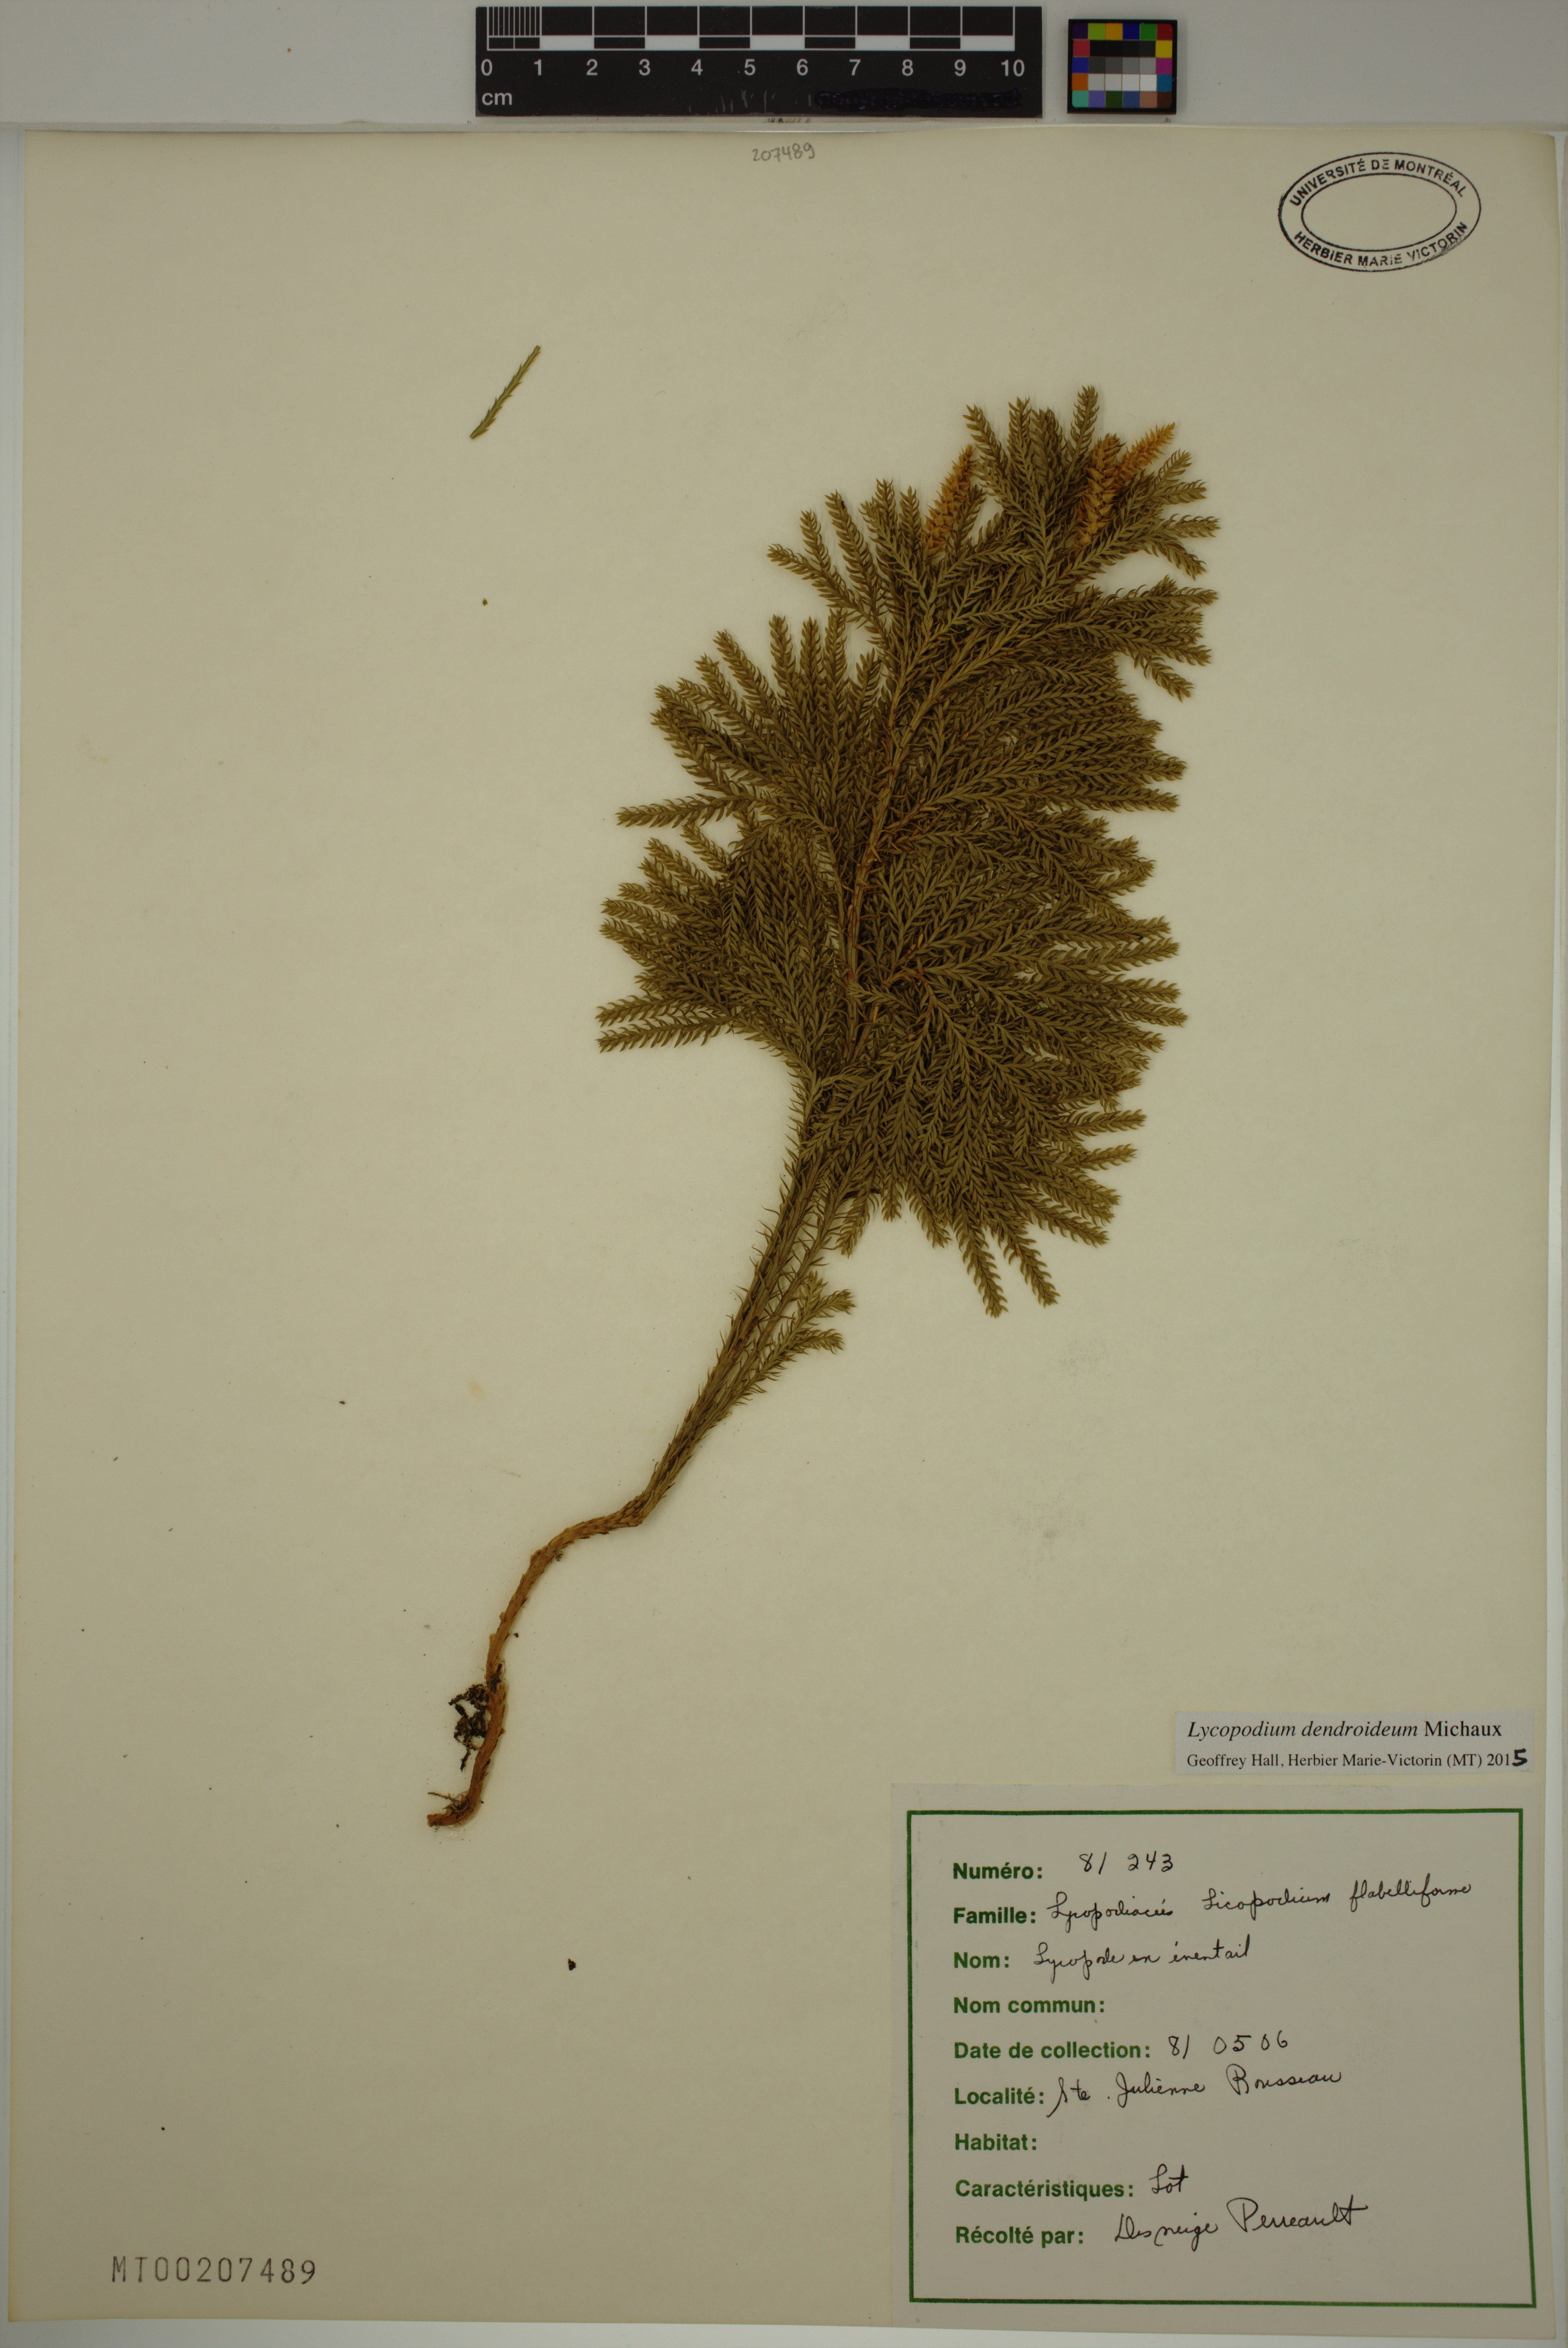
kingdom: Plantae
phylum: Tracheophyta
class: Lycopodiopsida
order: Lycopodiales
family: Lycopodiaceae
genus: Dendrolycopodium
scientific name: Dendrolycopodium dendroideum
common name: Northern tree-clubmoss
